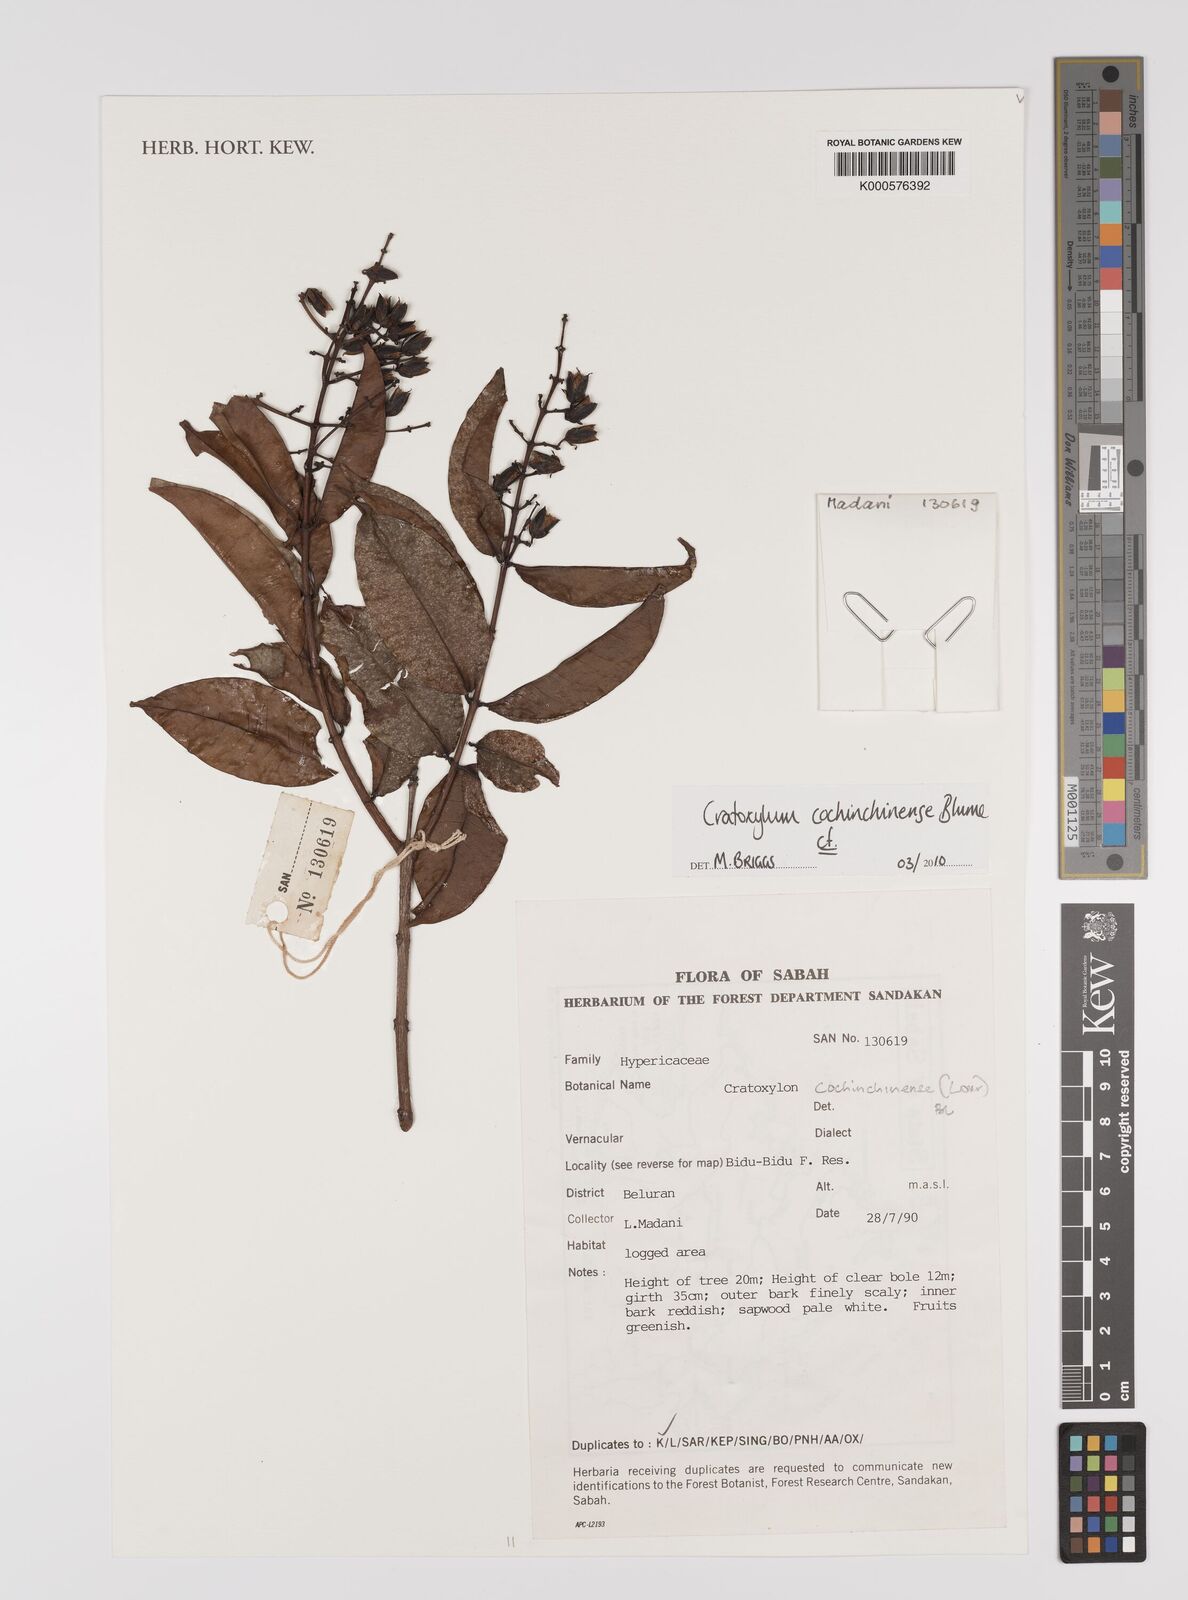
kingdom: Plantae
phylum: Tracheophyta
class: Magnoliopsida
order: Malpighiales
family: Hypericaceae
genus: Cratoxylum
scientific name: Cratoxylum cochinchinense
